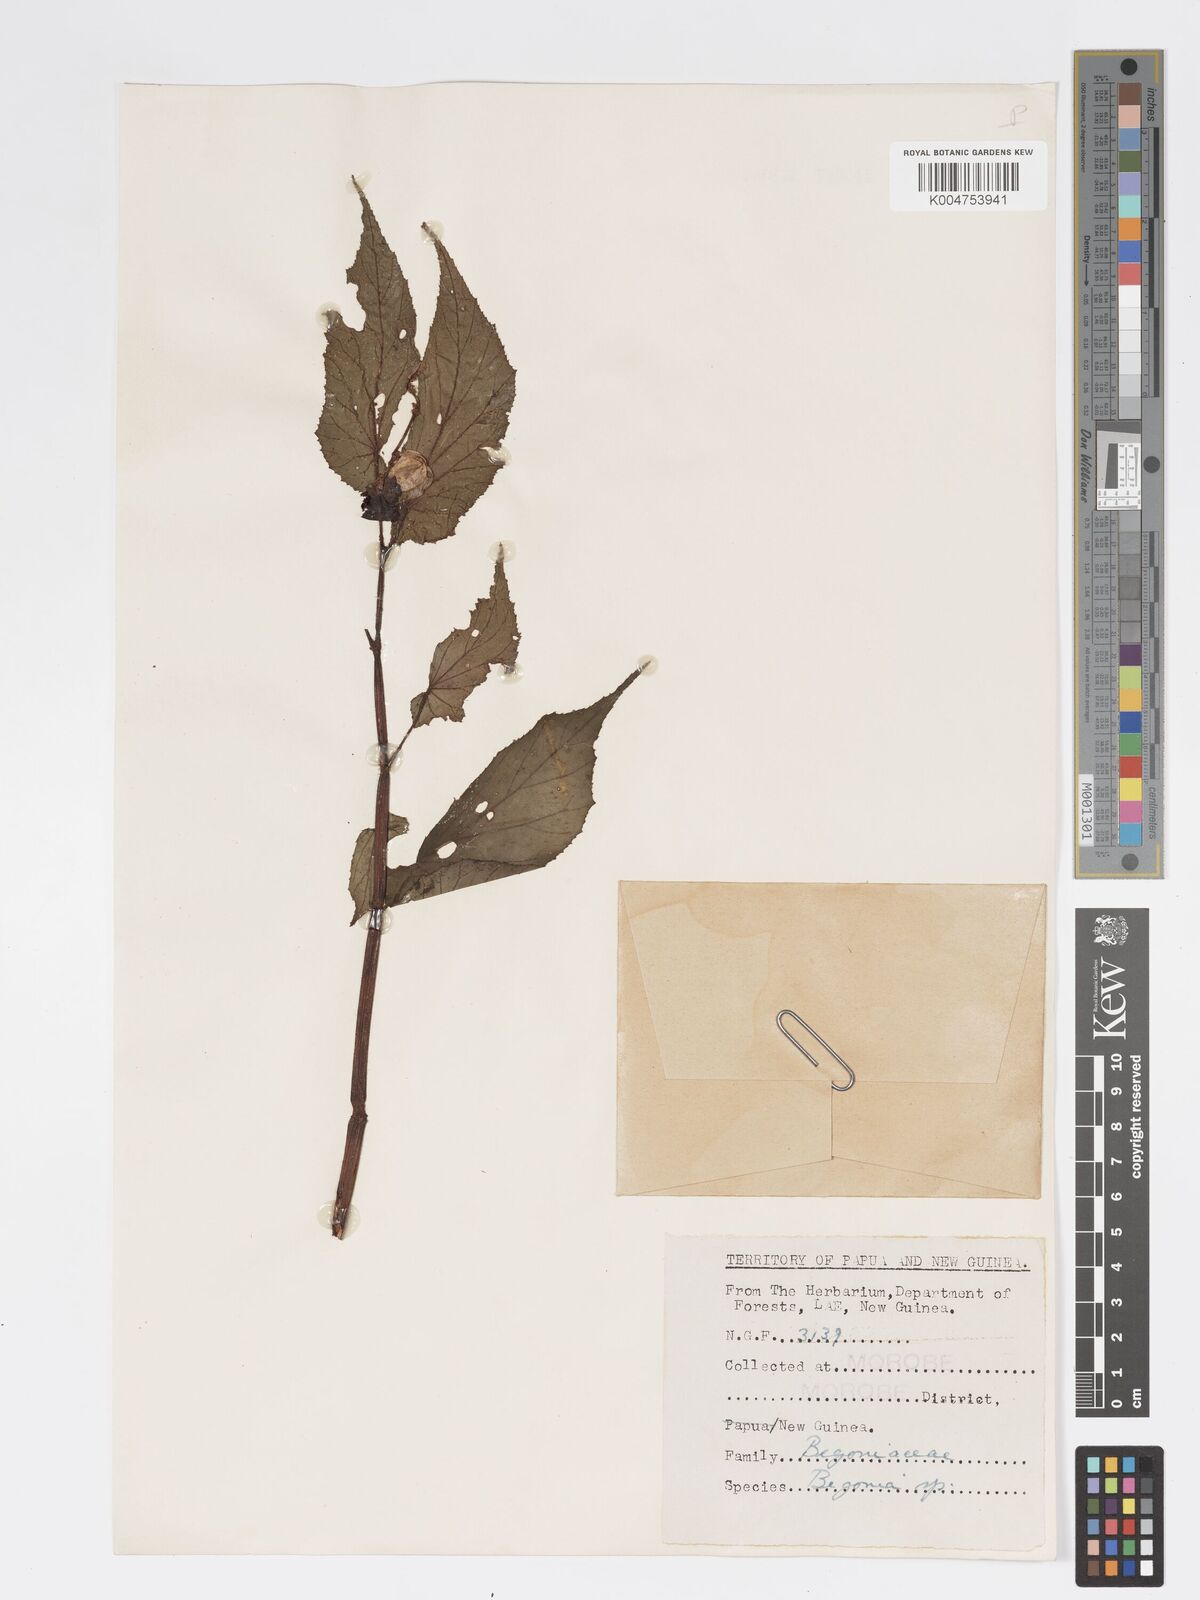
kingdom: Plantae
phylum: Tracheophyta
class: Magnoliopsida
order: Cucurbitales
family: Begoniaceae
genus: Begonia
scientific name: Begonia torricellensis
